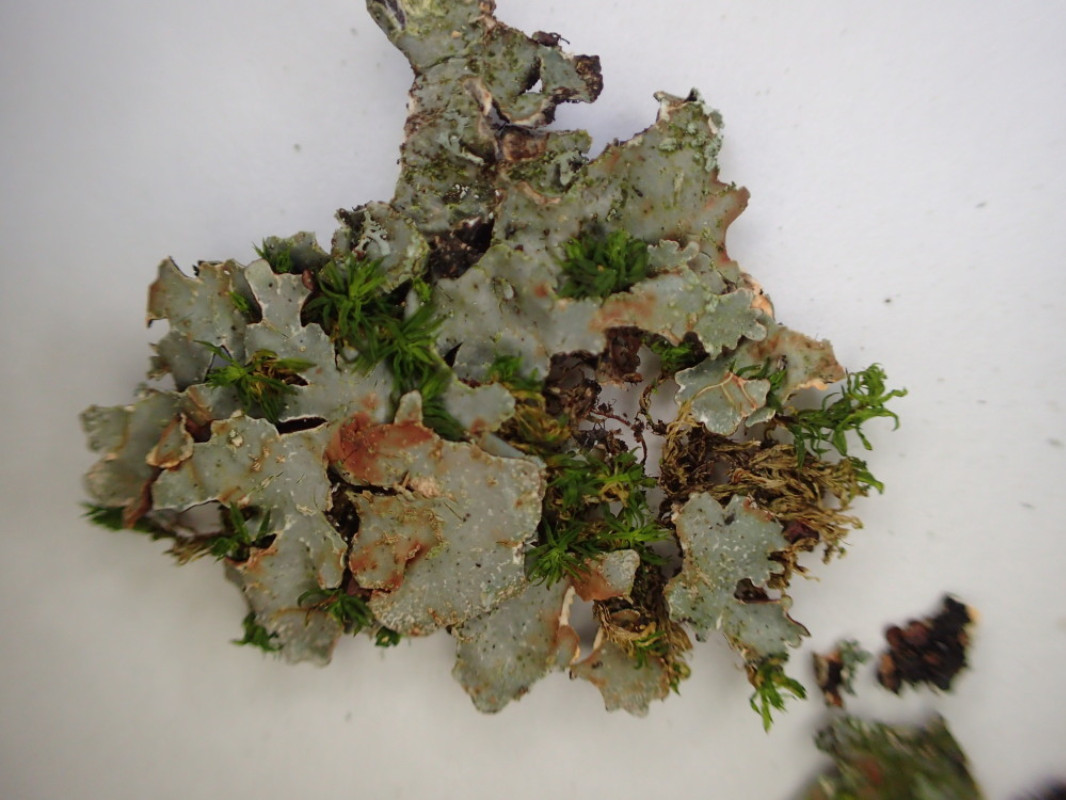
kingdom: Fungi
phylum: Ascomycota
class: Lecanoromycetes
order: Lecanorales
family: Parmeliaceae
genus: Parmelia
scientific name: Parmelia sulcata
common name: rynket skållav
